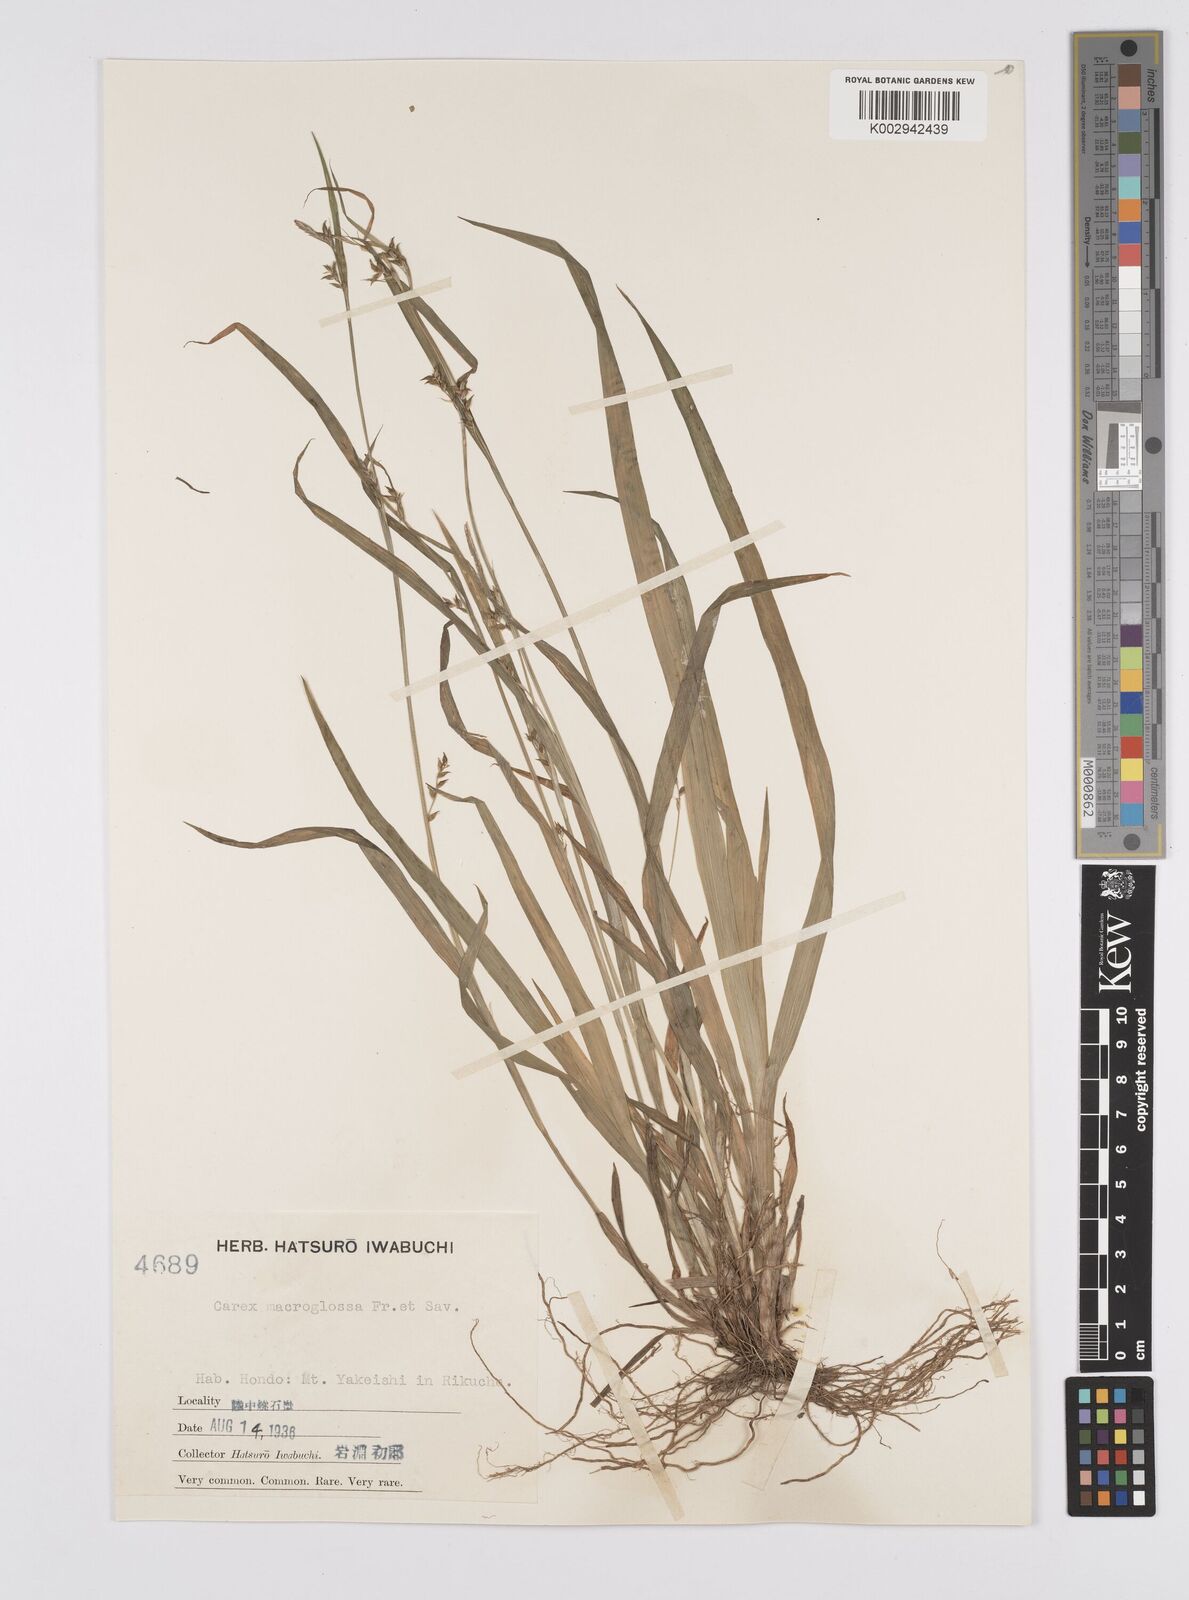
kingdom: Plantae
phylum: Tracheophyta
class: Liliopsida
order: Poales
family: Cyperaceae
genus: Carex
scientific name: Carex jackiana
